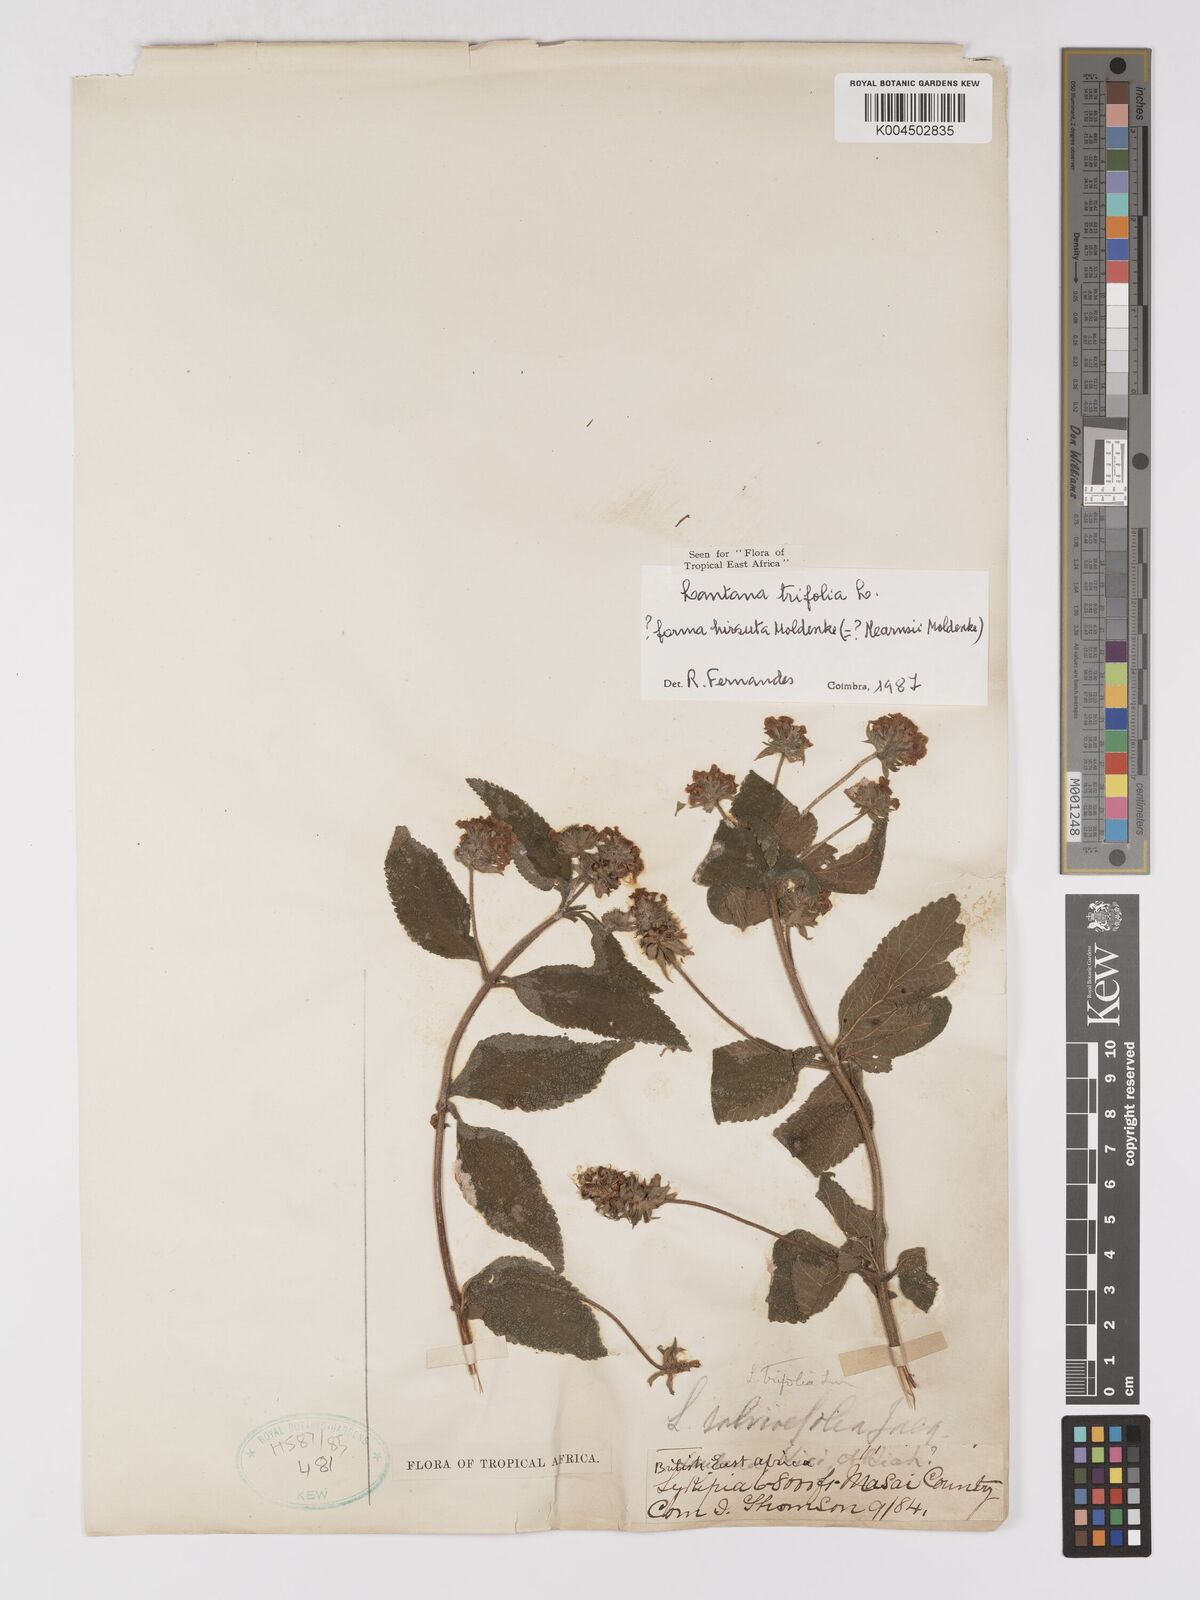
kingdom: Plantae
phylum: Tracheophyta
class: Magnoliopsida
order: Lamiales
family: Verbenaceae
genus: Lantana
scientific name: Lantana trifolia
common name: Sweet-sage
